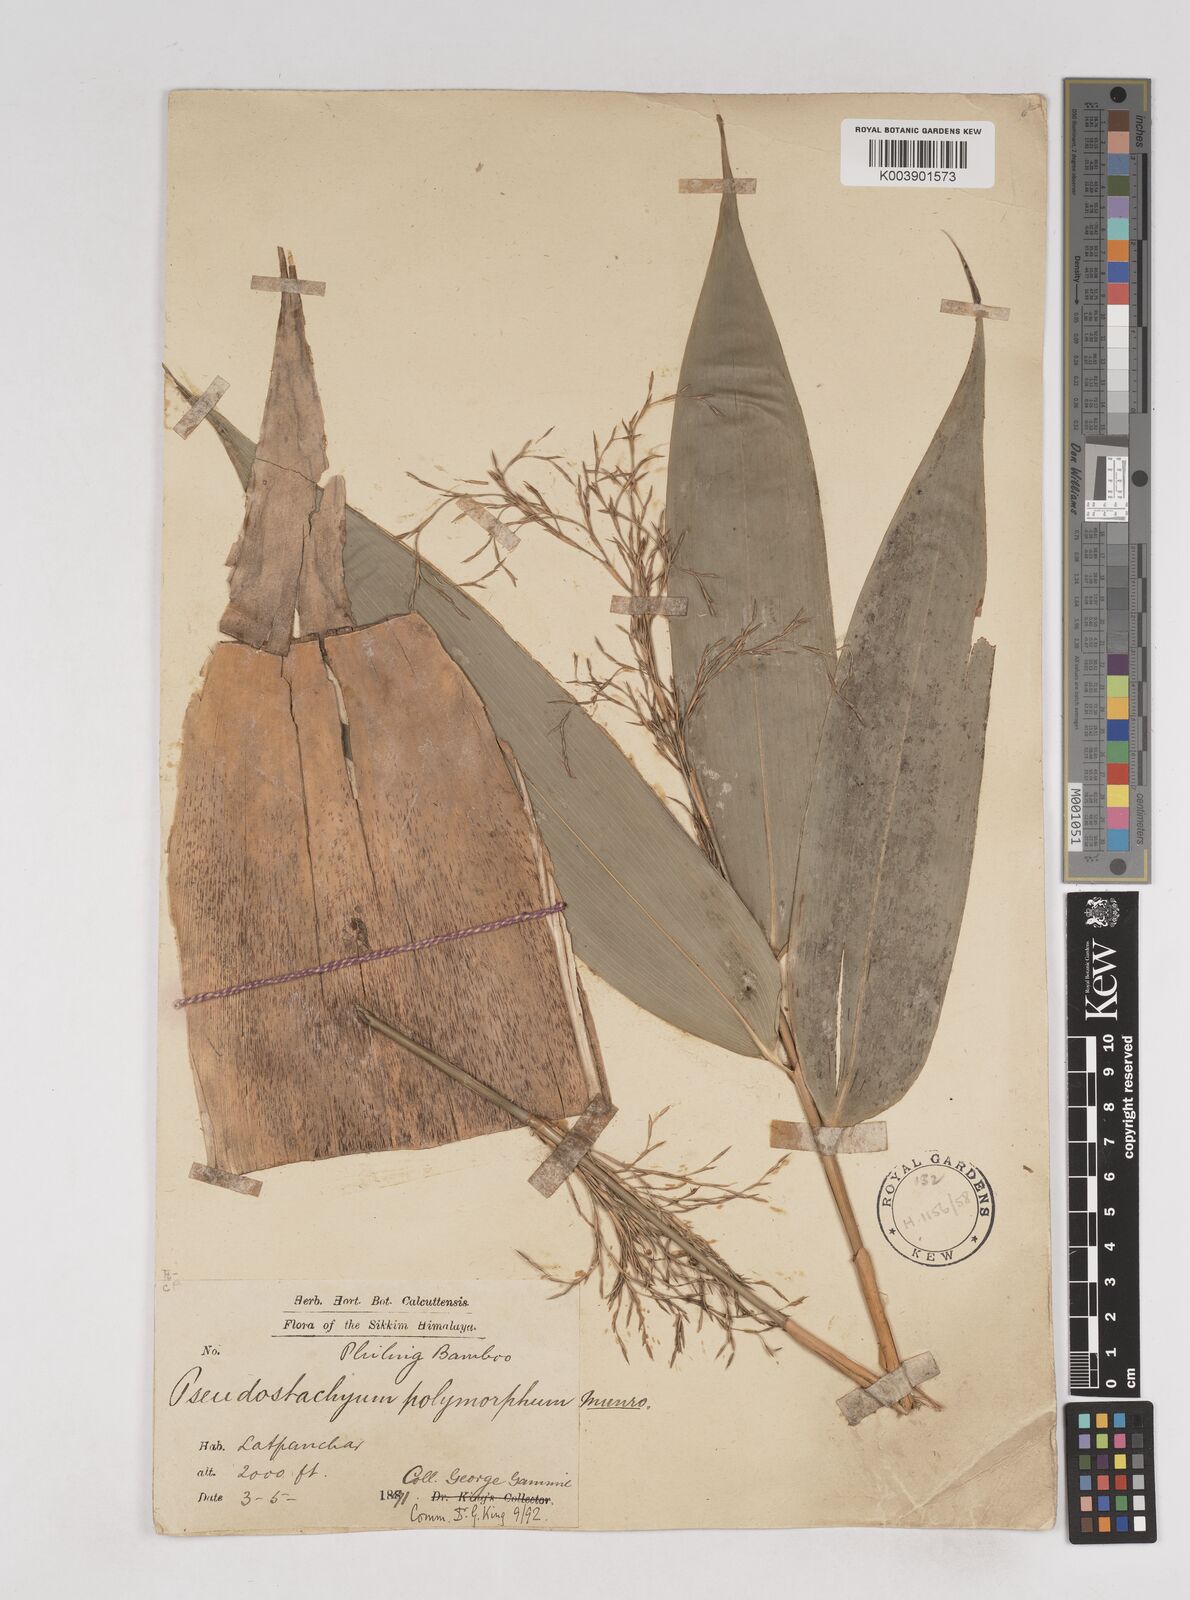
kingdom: Plantae
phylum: Tracheophyta
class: Liliopsida
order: Poales
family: Poaceae
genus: Pseudostachyum
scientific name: Pseudostachyum polymorphum
